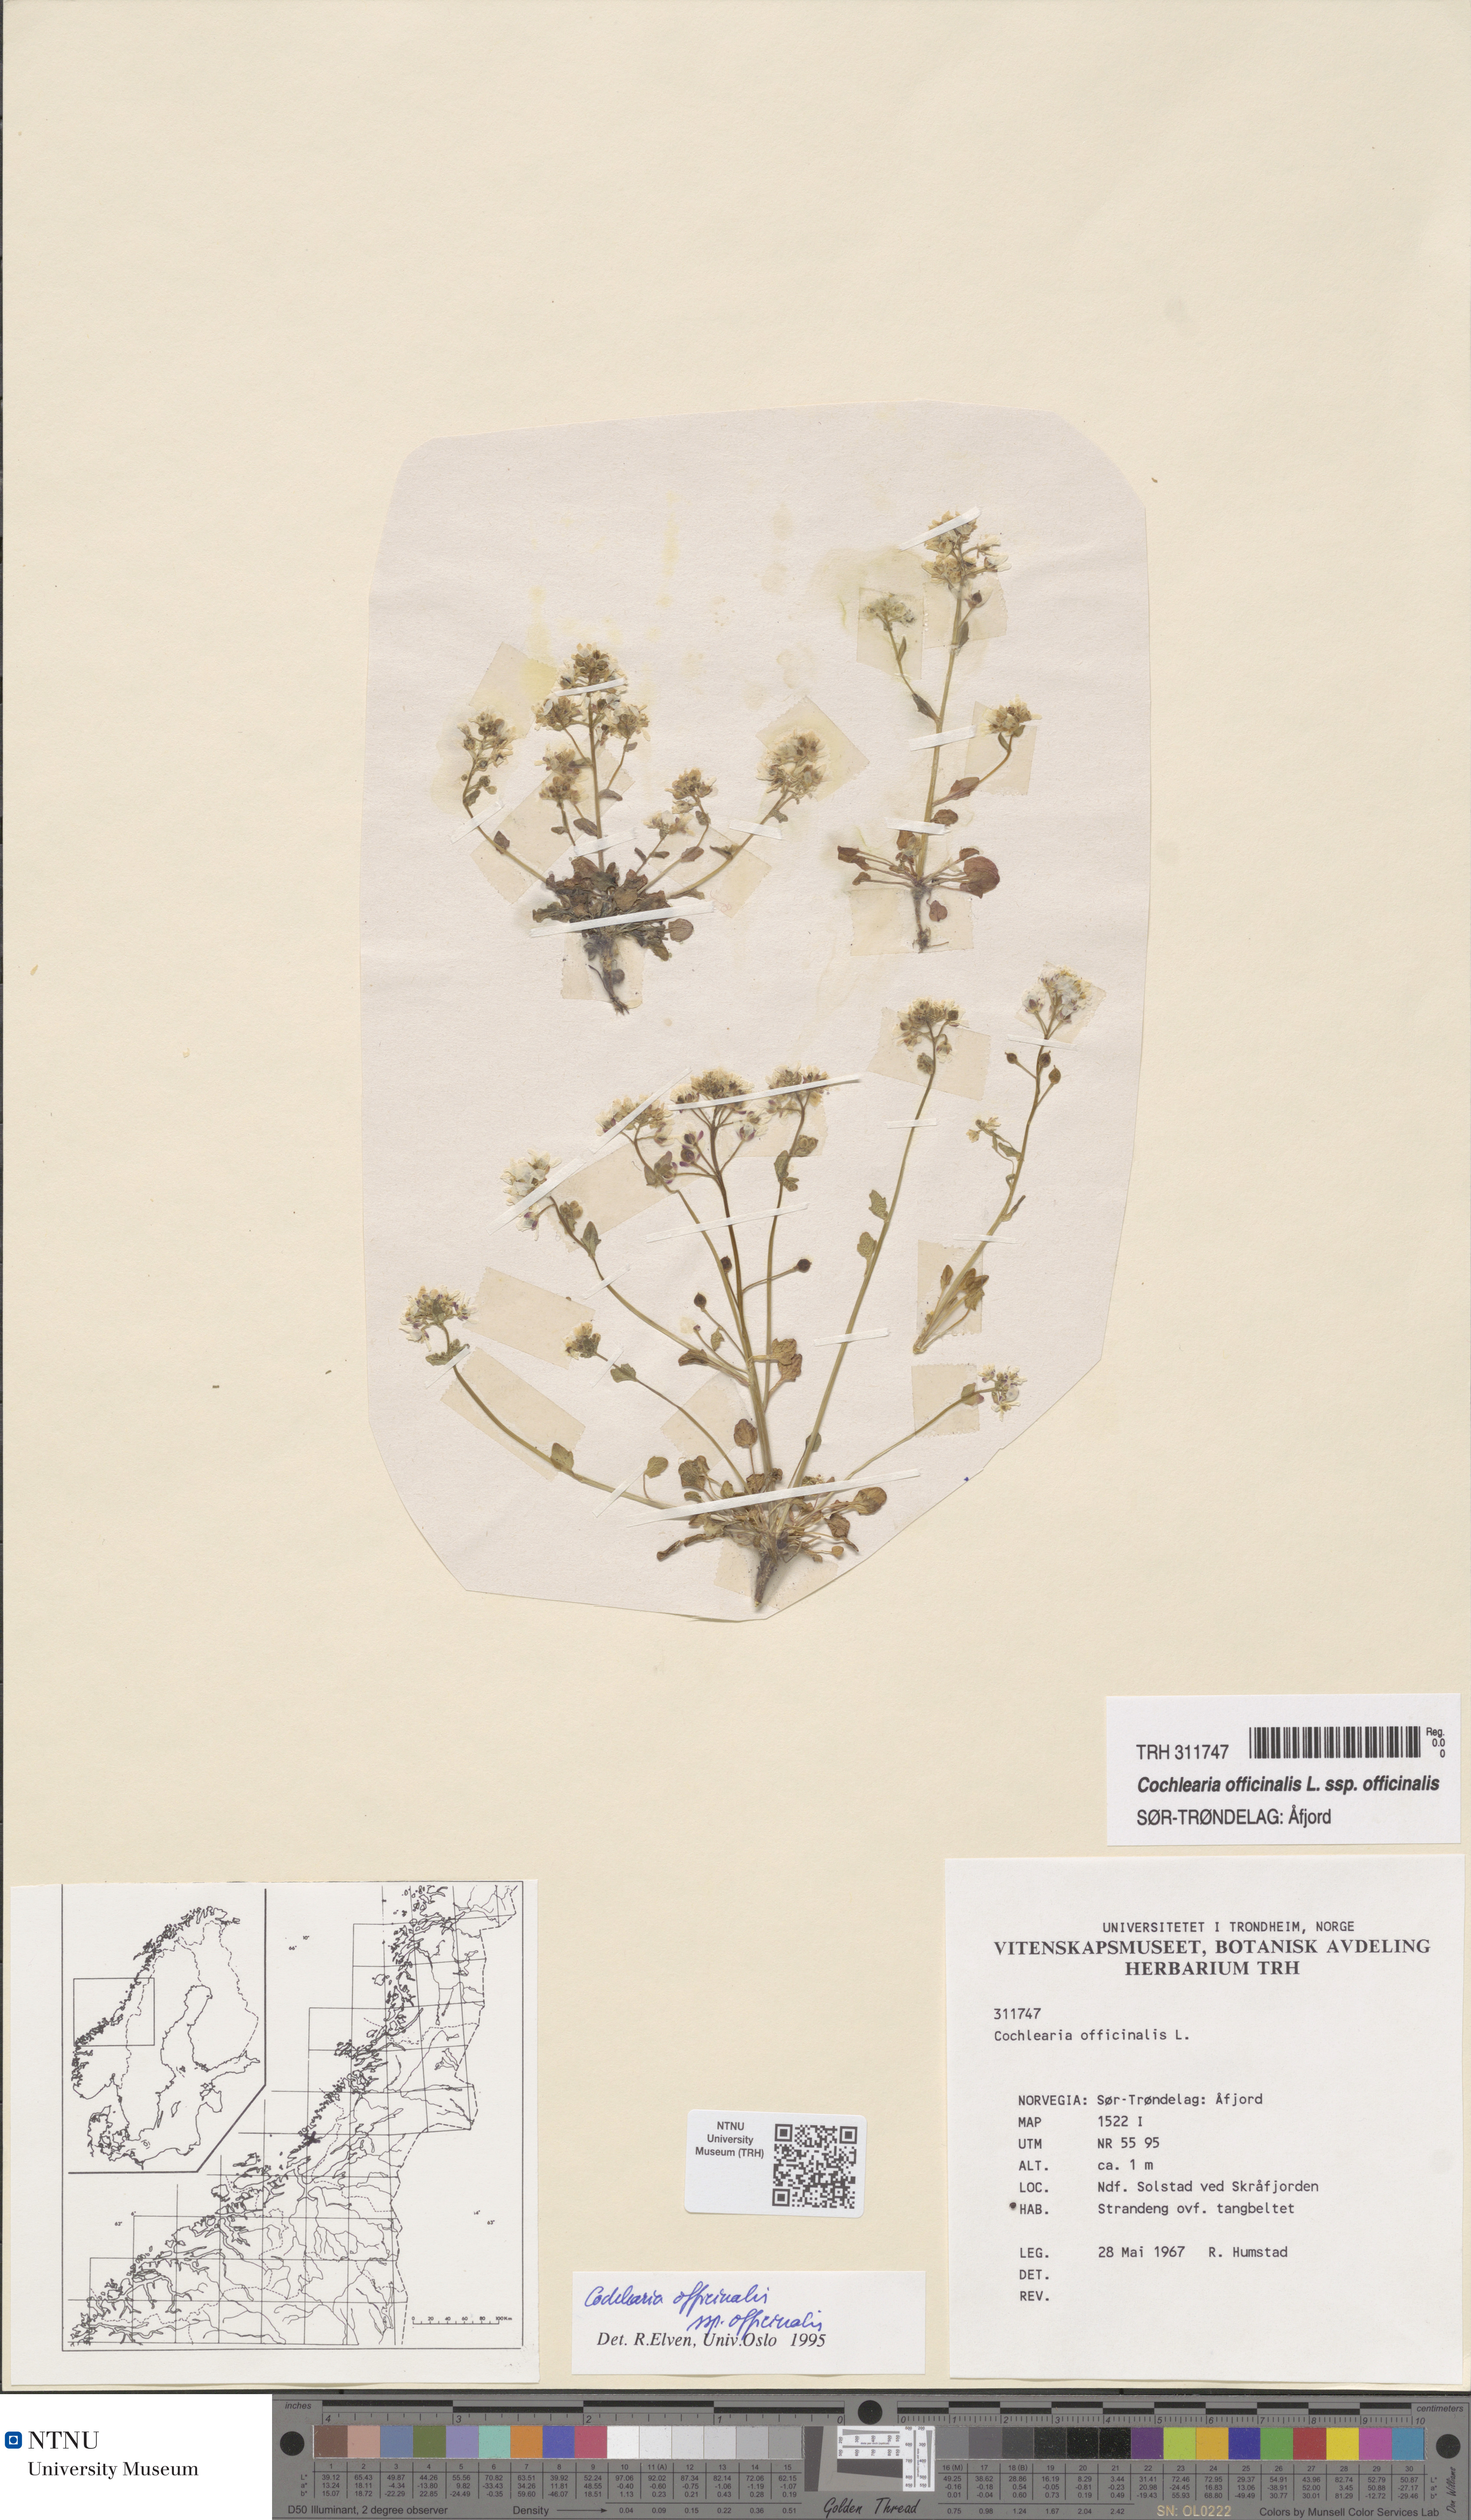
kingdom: Plantae
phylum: Tracheophyta
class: Magnoliopsida
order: Brassicales
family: Brassicaceae
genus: Cochlearia
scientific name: Cochlearia officinalis
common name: Scurvy-grass
